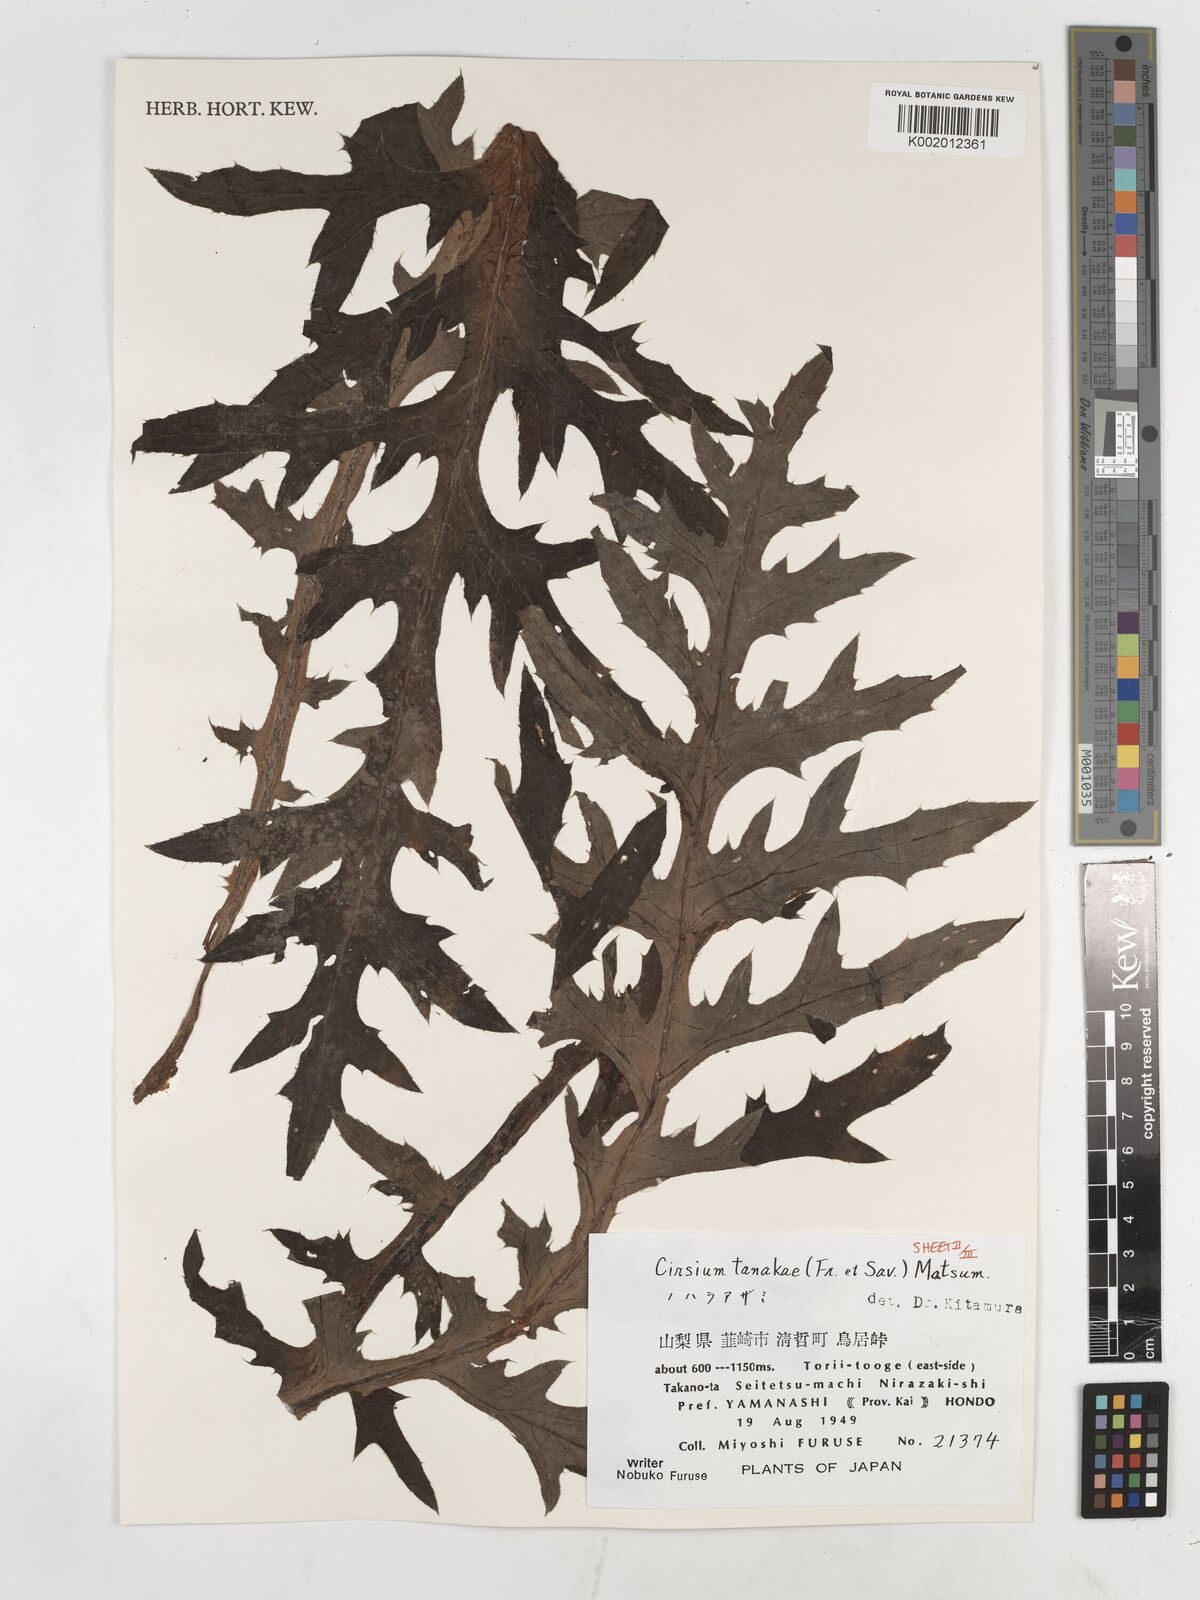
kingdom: Plantae
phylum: Tracheophyta
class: Magnoliopsida
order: Asterales
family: Asteraceae
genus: Cirsium
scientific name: Cirsium nipponicum
